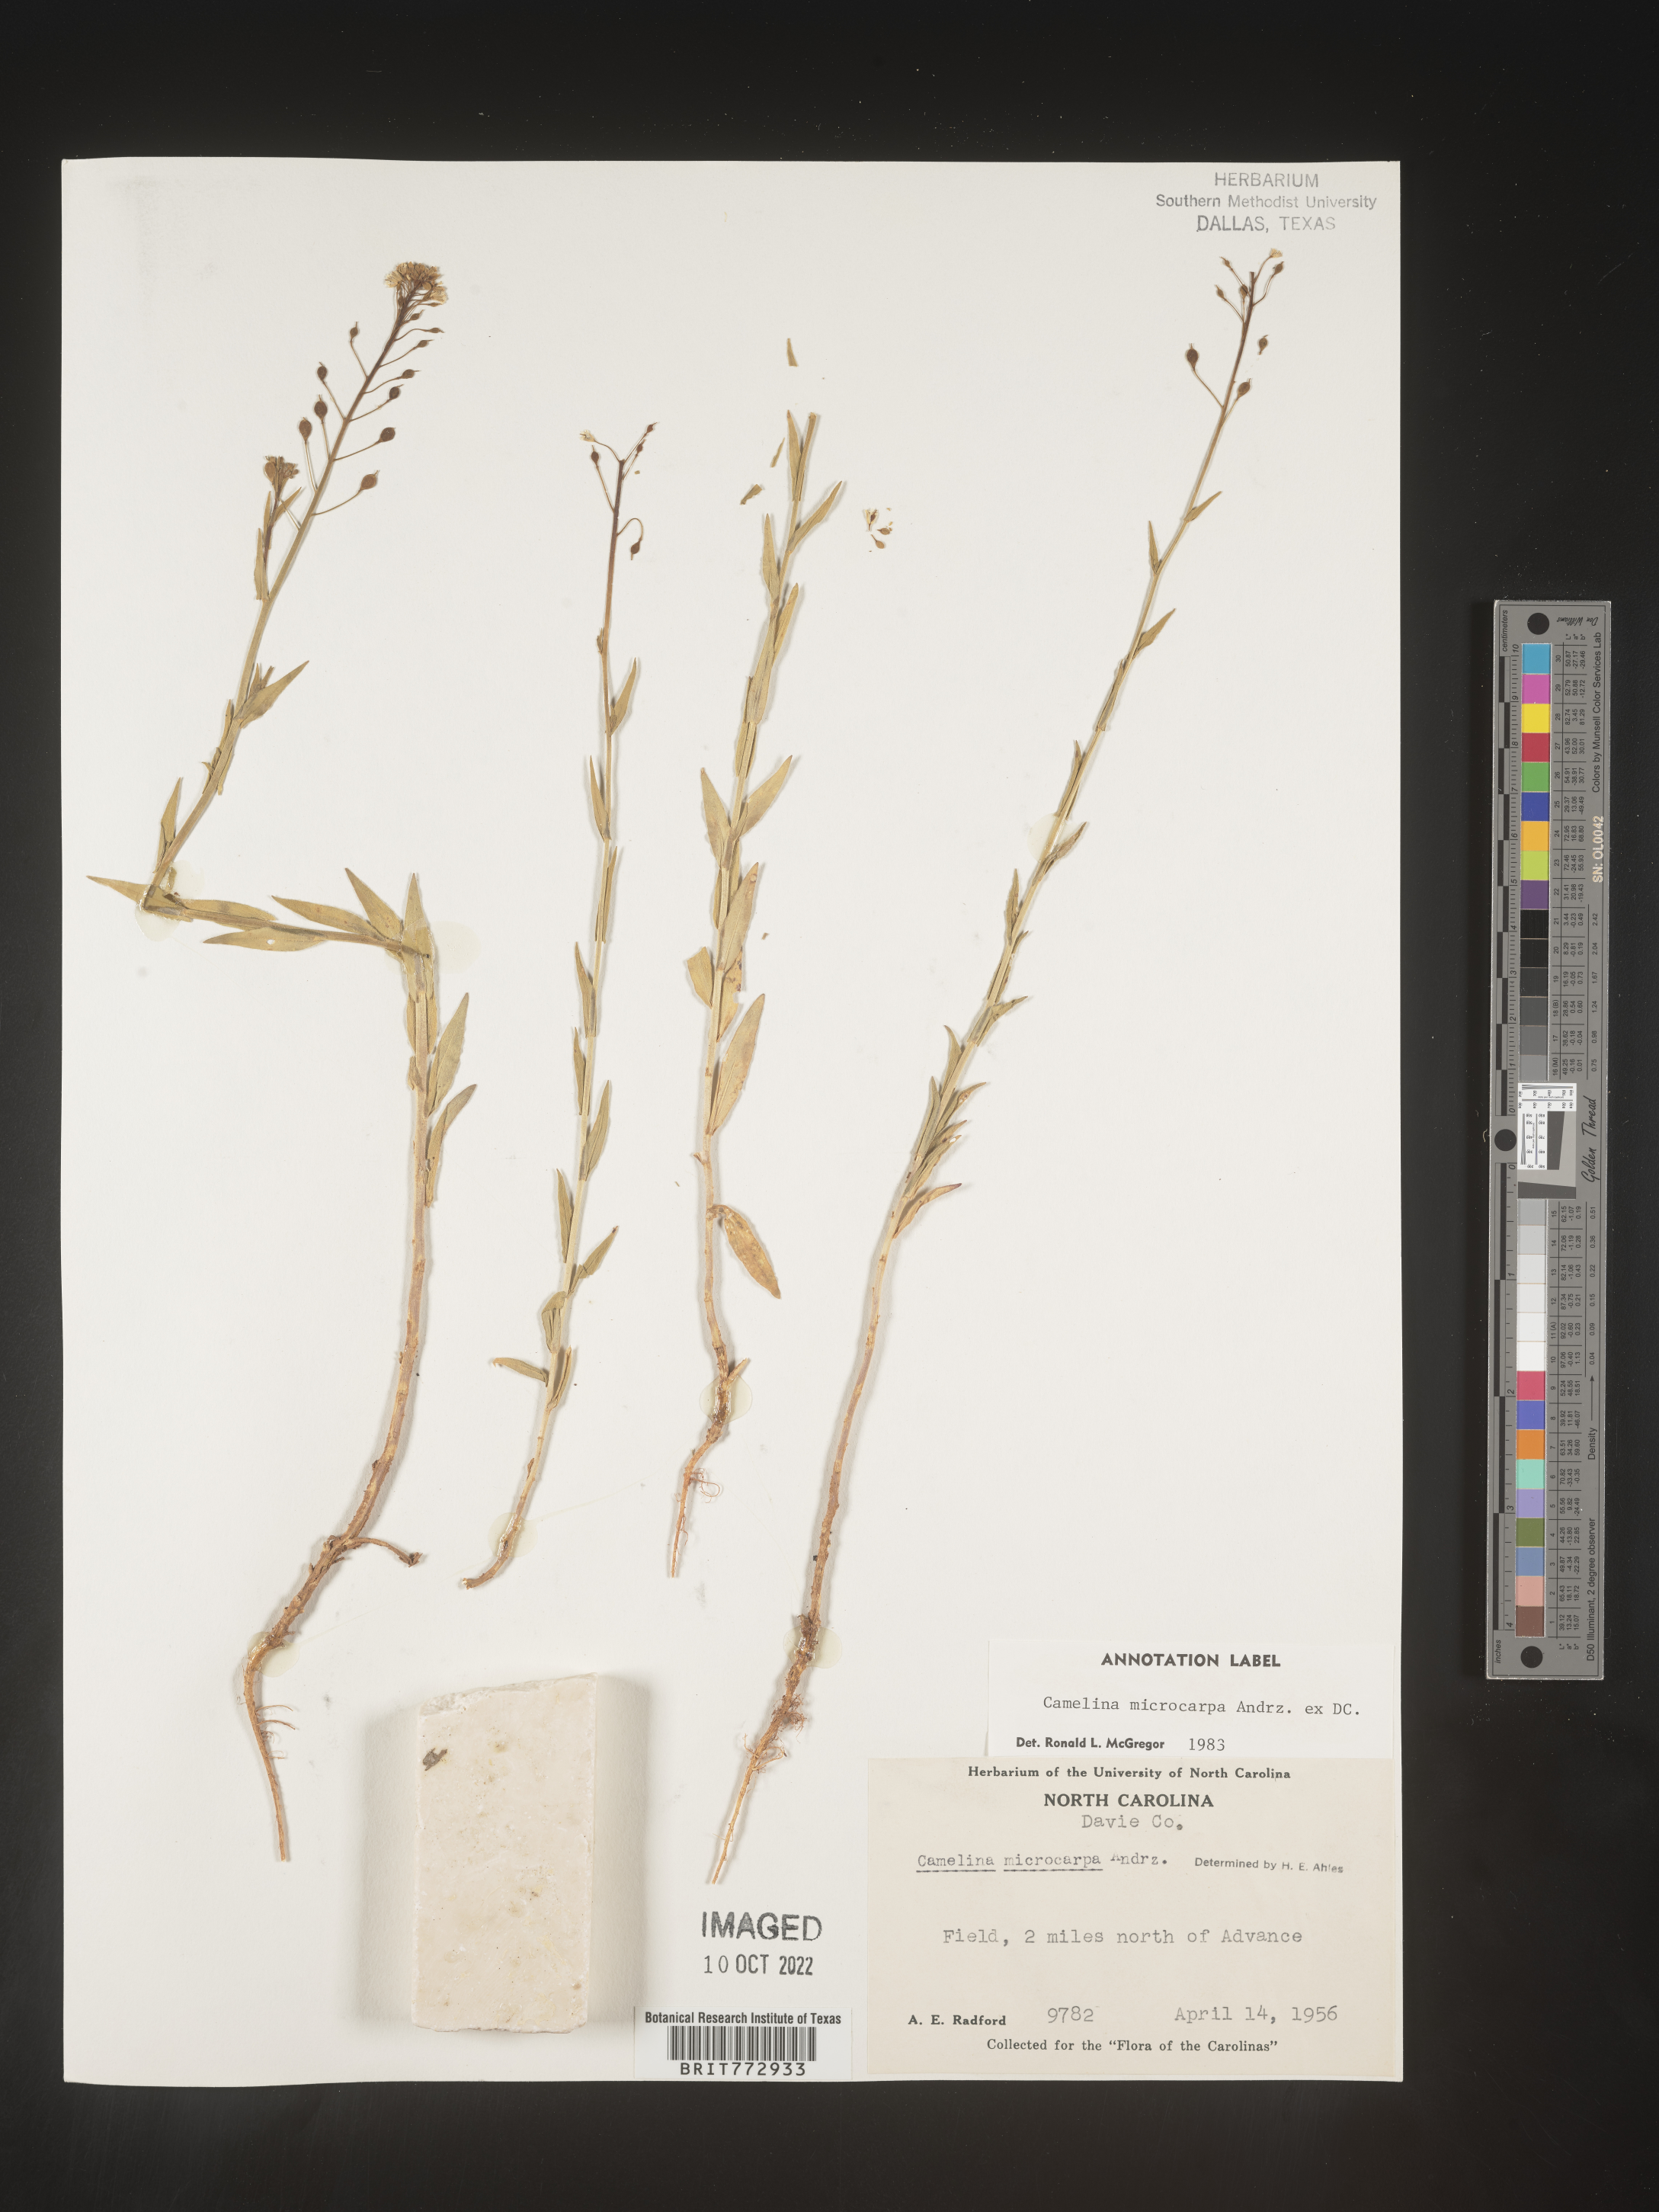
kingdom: Plantae
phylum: Tracheophyta
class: Magnoliopsida
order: Brassicales
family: Brassicaceae
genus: Camelina
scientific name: Camelina microcarpa
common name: Lesser gold-of-pleasure
